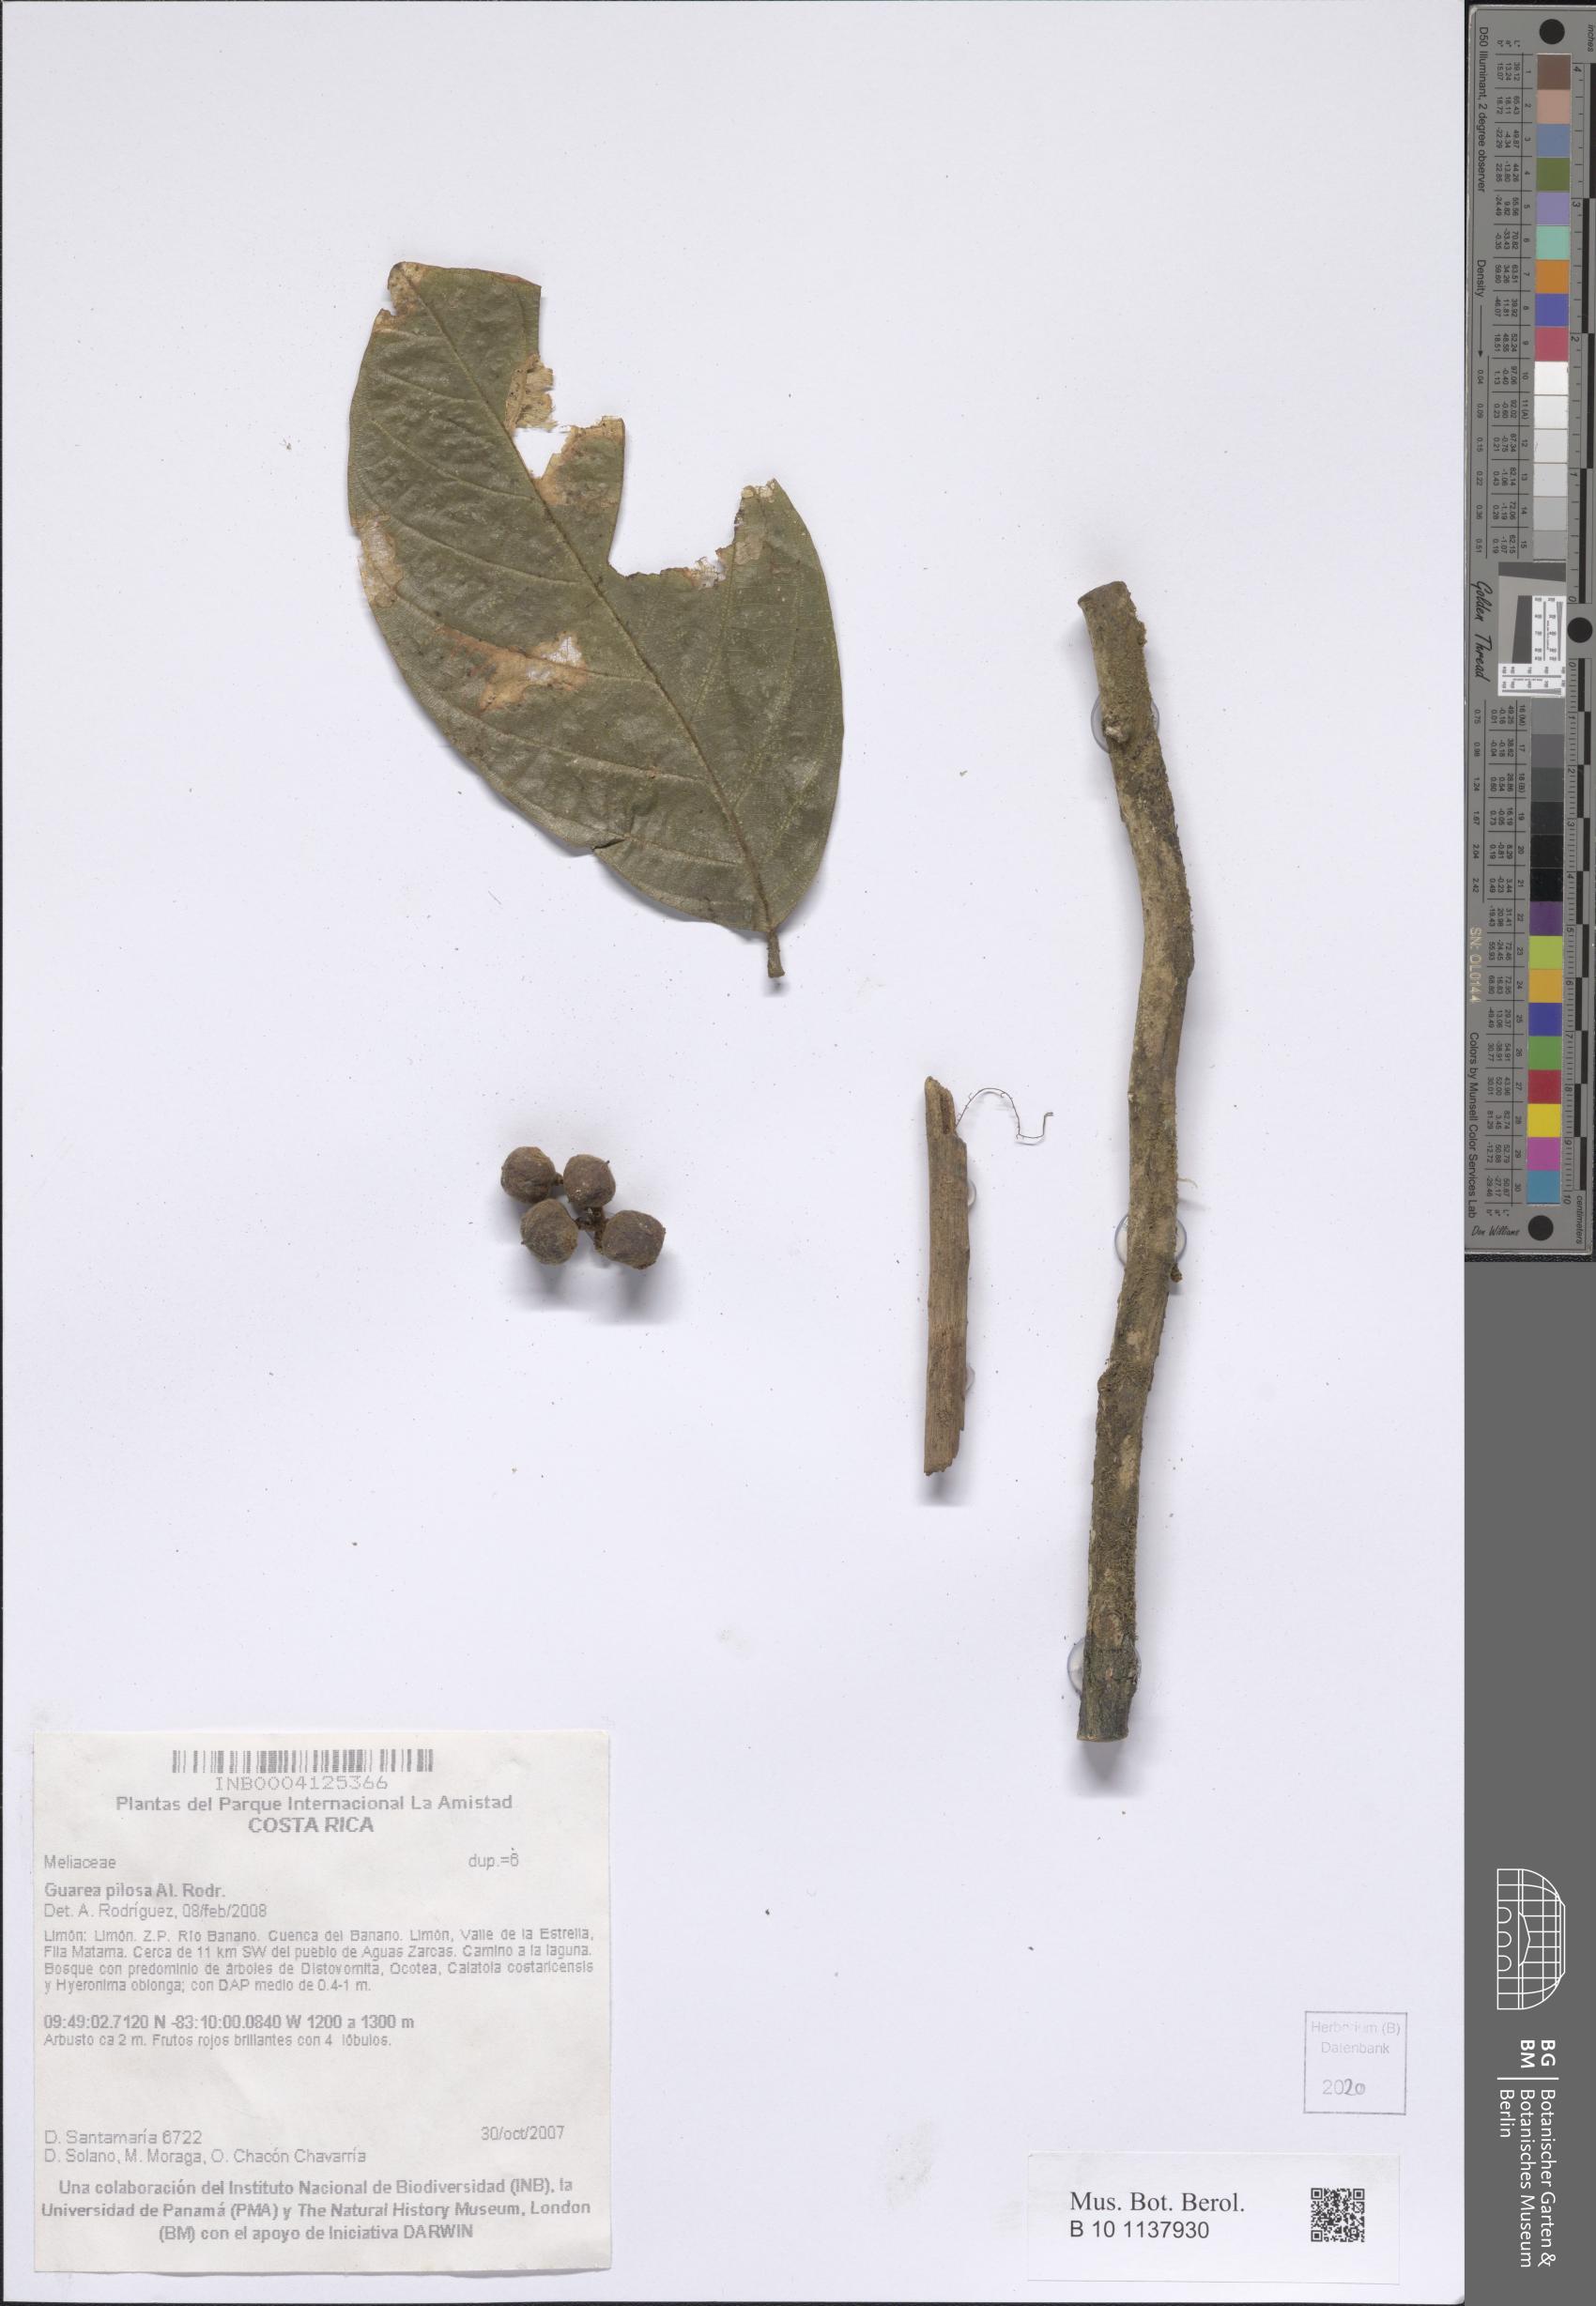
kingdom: Plantae
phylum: Tracheophyta
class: Magnoliopsida
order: Sapindales
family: Meliaceae
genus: Guarea
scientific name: Guarea pilosa
